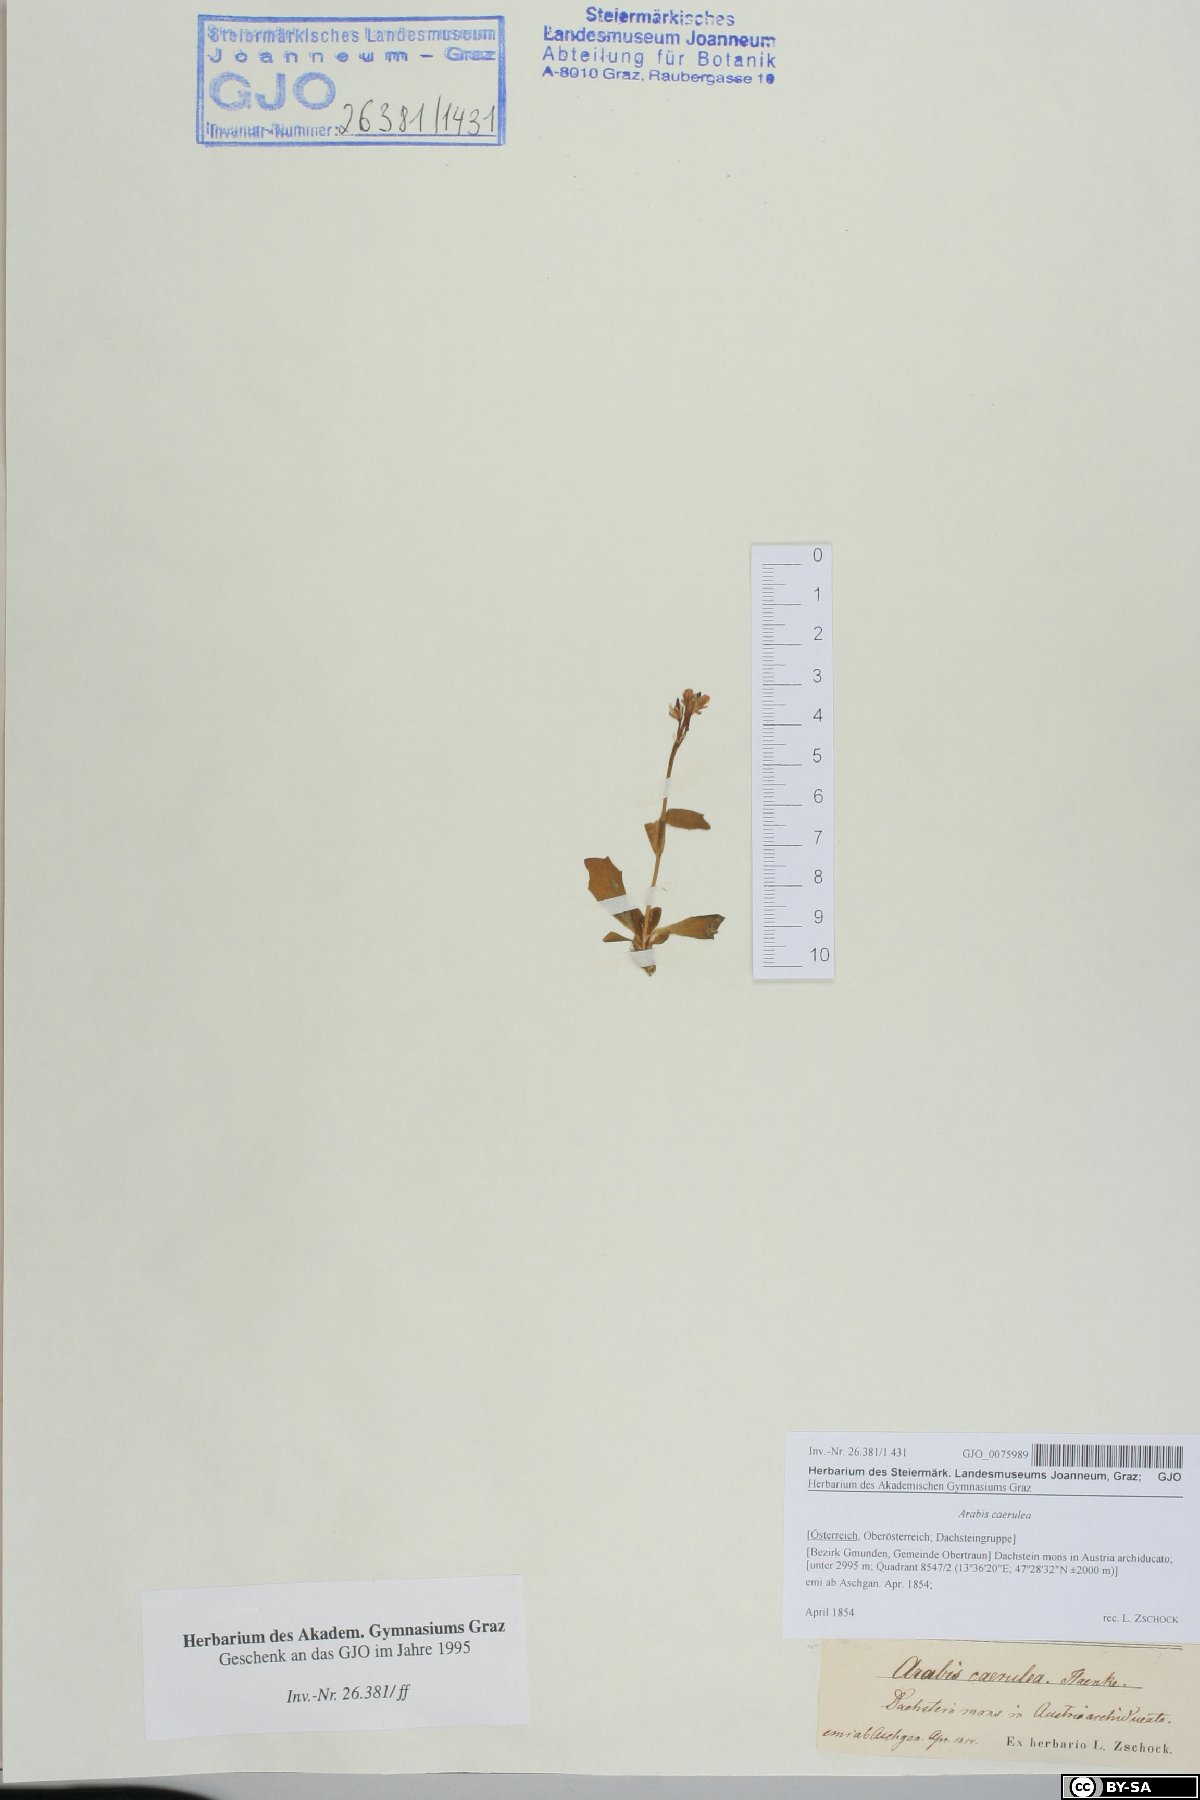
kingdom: Plantae
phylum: Tracheophyta
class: Magnoliopsida
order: Brassicales
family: Brassicaceae
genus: Arabis
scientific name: Arabis caerulea
